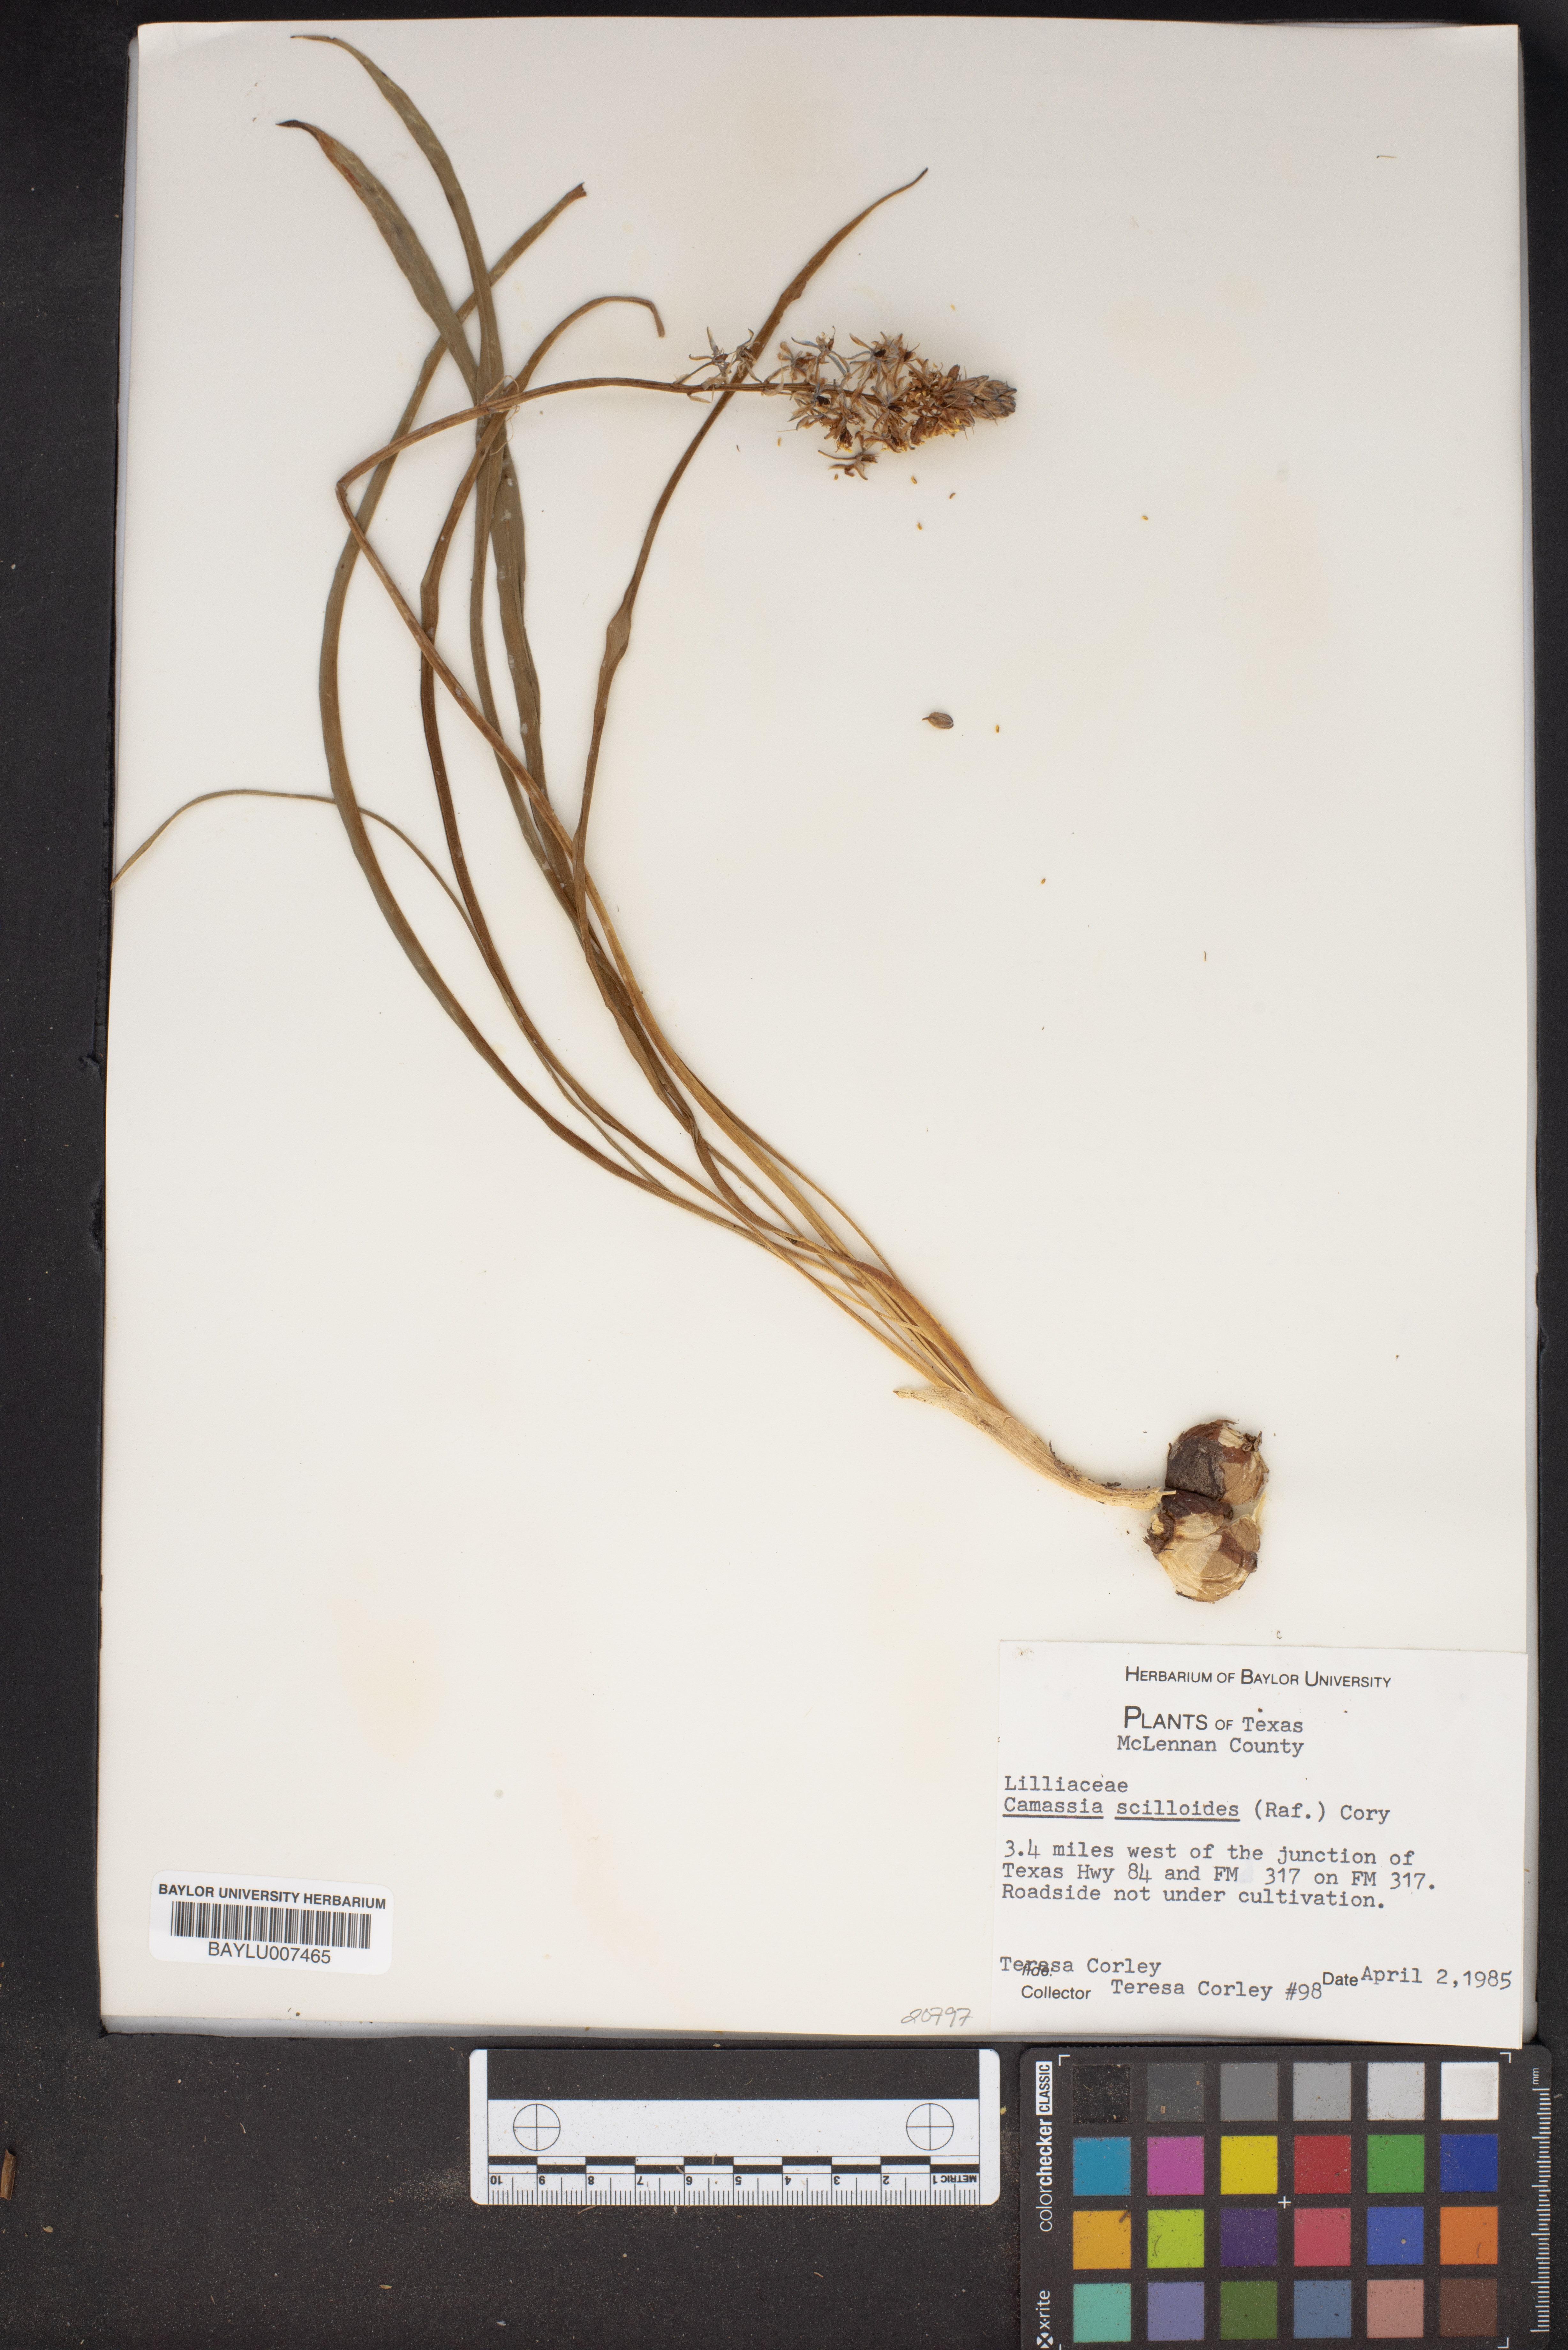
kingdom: Plantae
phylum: Tracheophyta
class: Liliopsida
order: Asparagales
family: Asparagaceae
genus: Camassia
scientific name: Camassia scilloides
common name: Wild hyacinth
